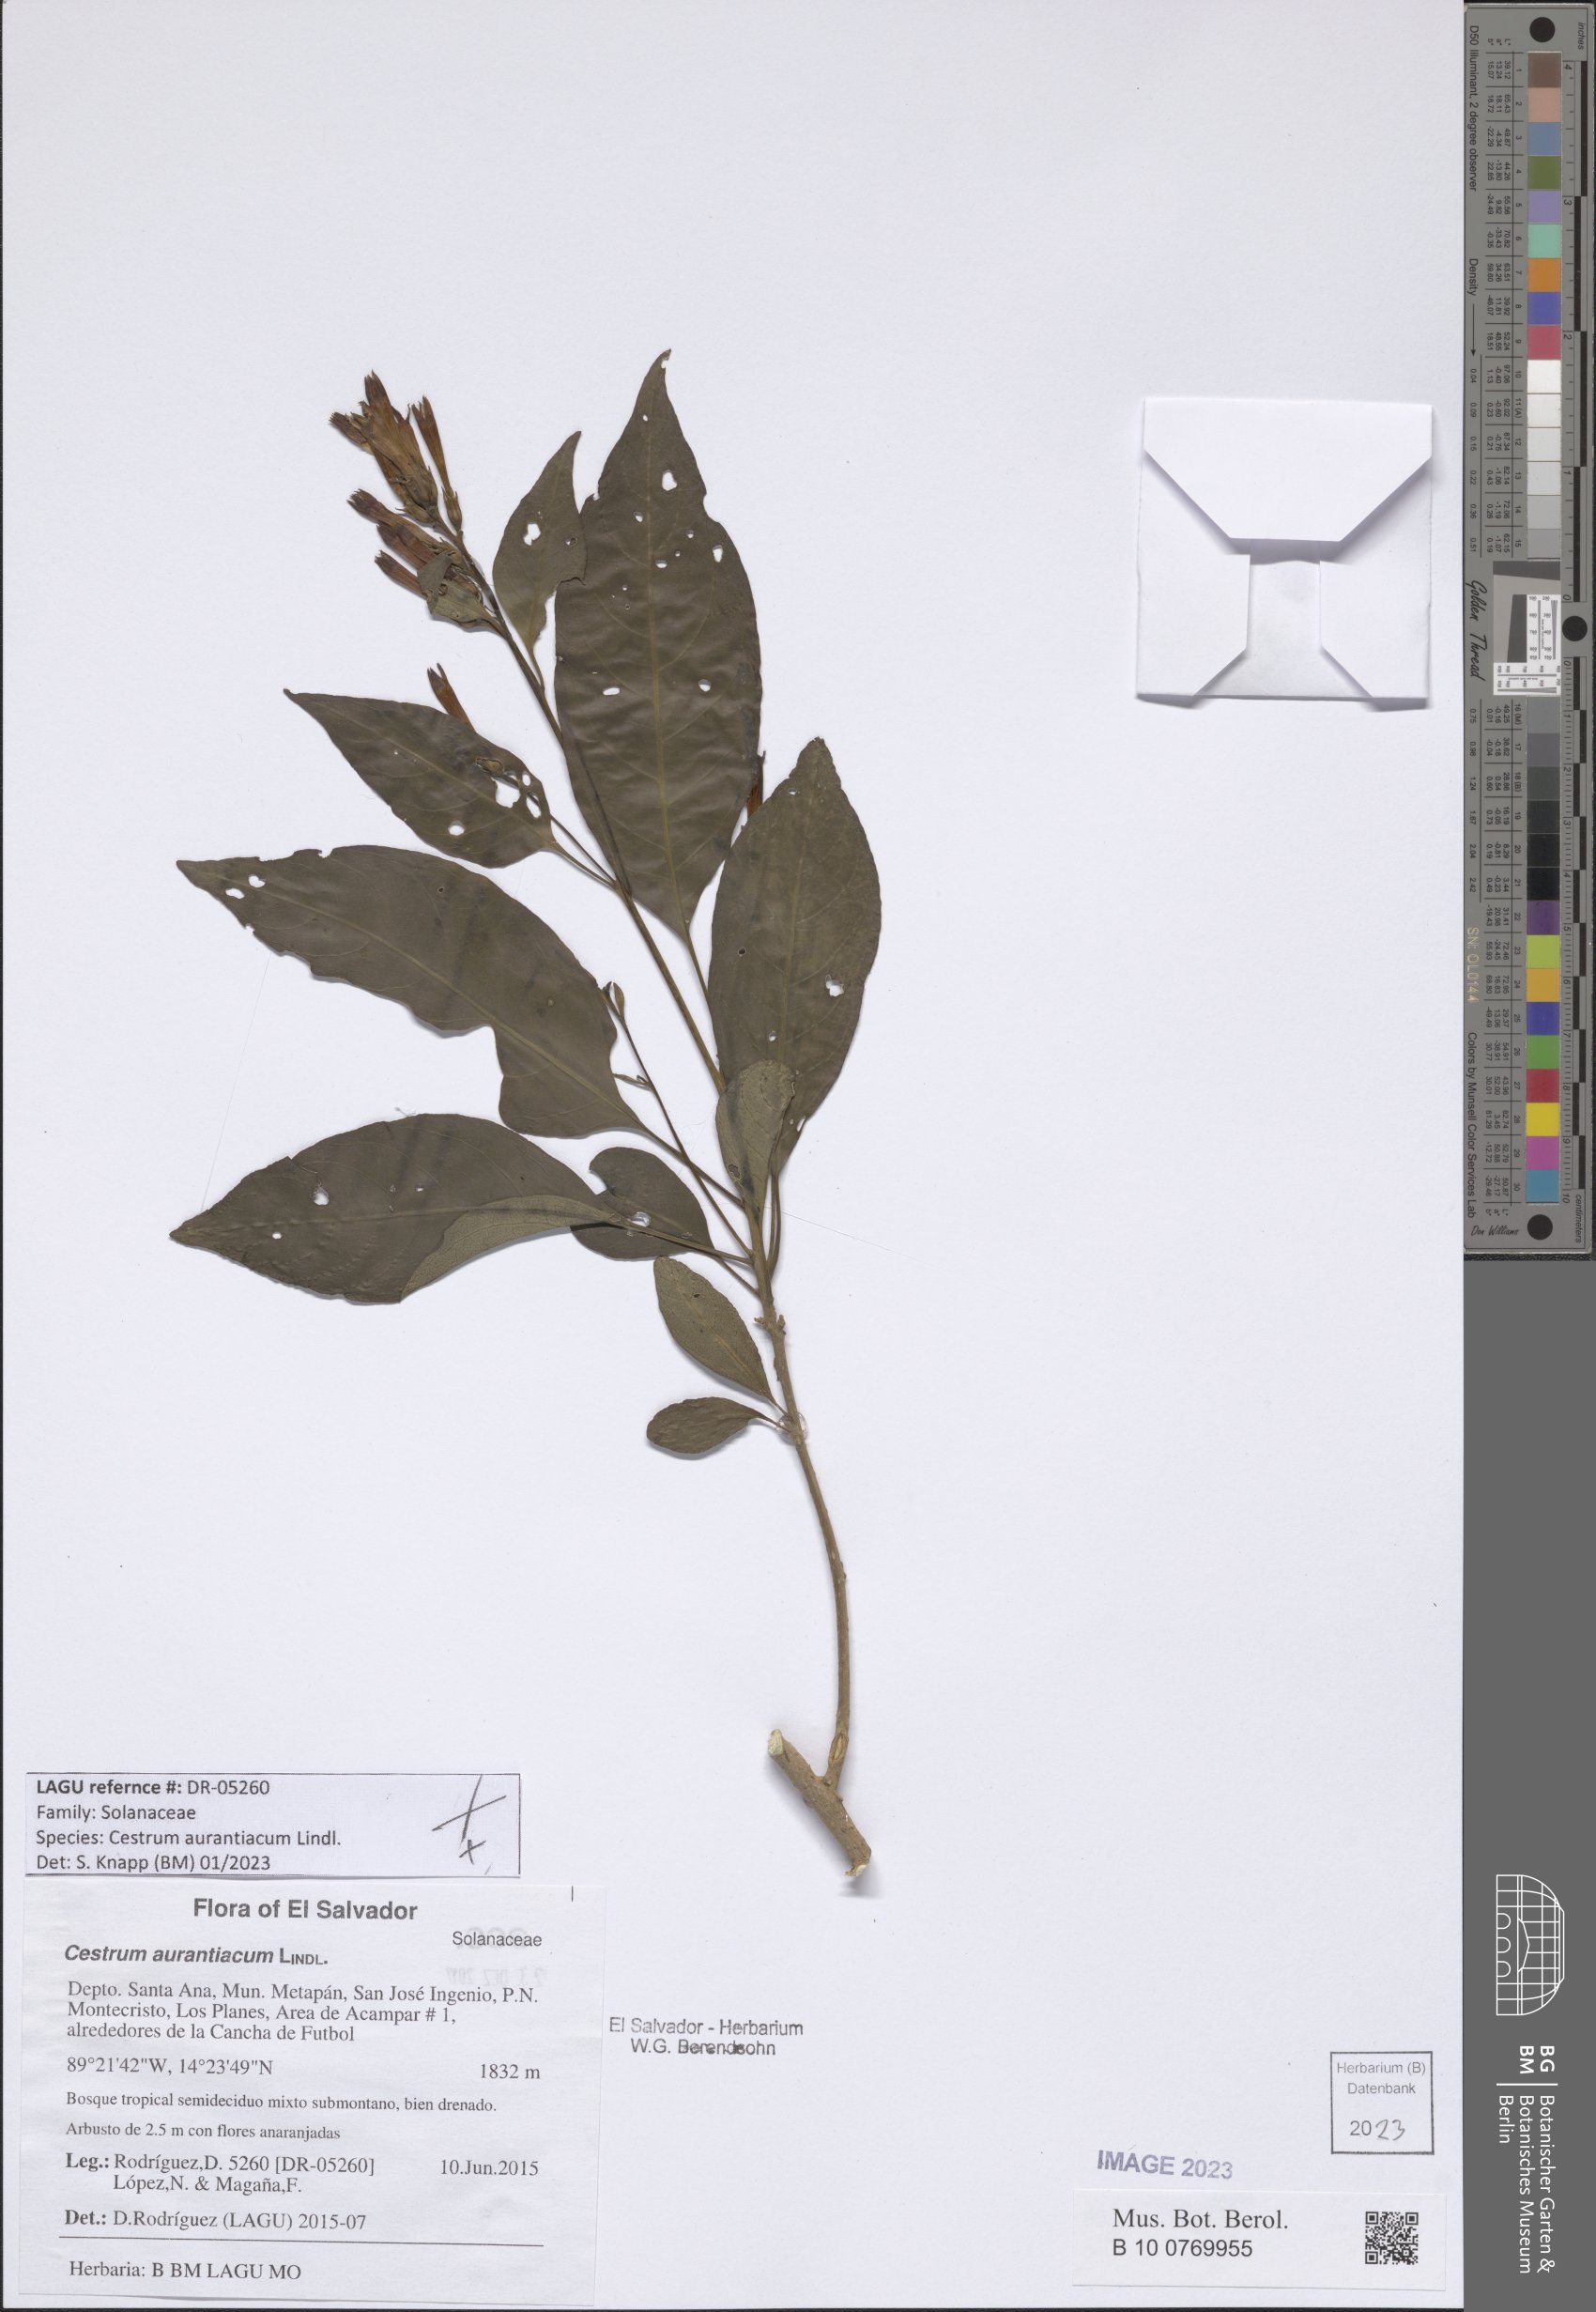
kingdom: Plantae
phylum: Tracheophyta
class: Magnoliopsida
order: Solanales
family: Solanaceae
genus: Cestrum
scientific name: Cestrum aurantiacum
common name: Orange cestrum
